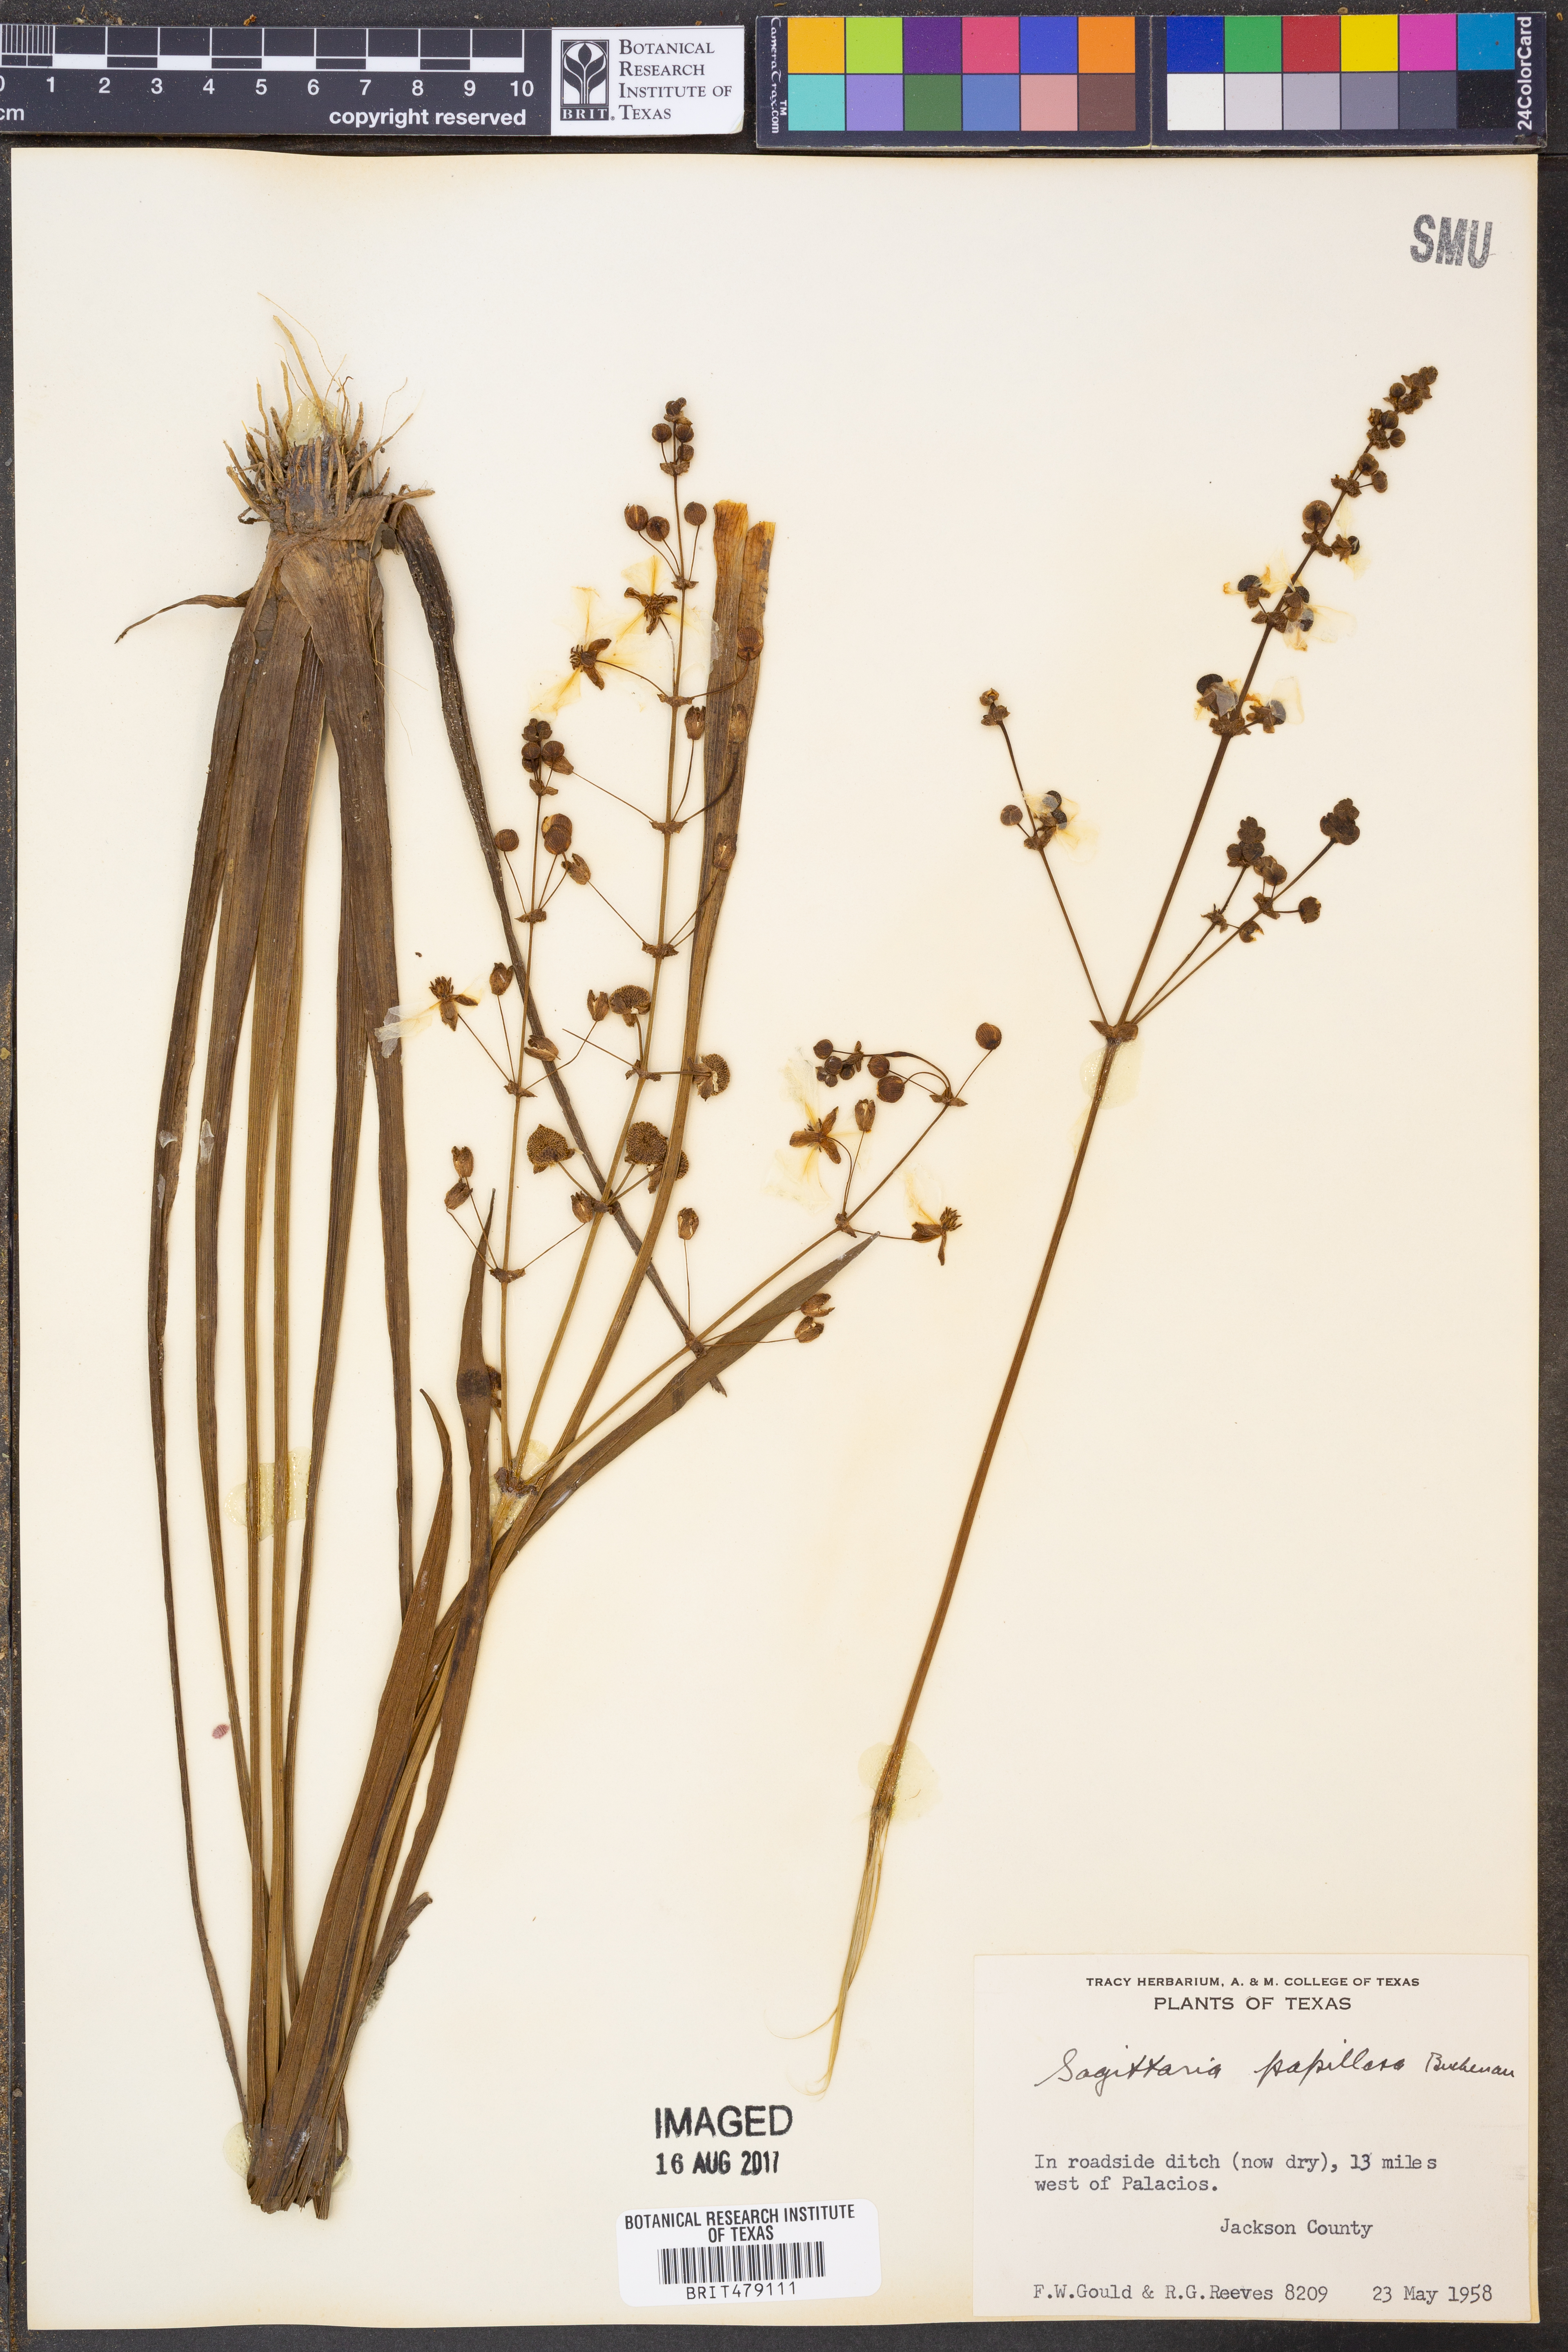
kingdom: Plantae
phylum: Tracheophyta
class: Liliopsida
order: Alismatales
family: Alismataceae
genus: Sagittaria
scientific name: Sagittaria papillosa
